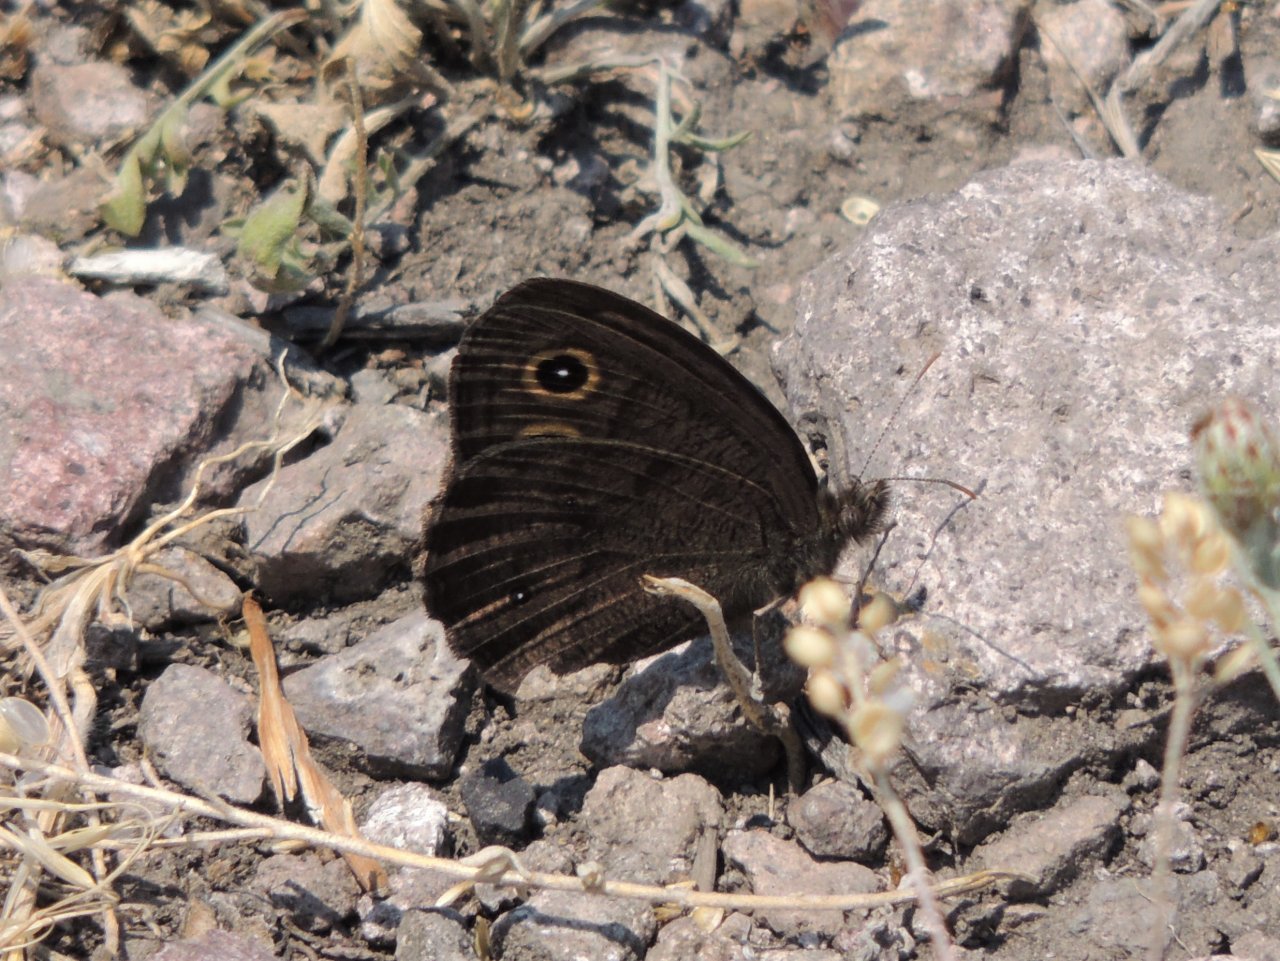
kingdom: Animalia
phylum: Arthropoda
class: Insecta
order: Lepidoptera
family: Nymphalidae
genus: Cercyonis
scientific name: Cercyonis pegala
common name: Common Wood-Nymph
